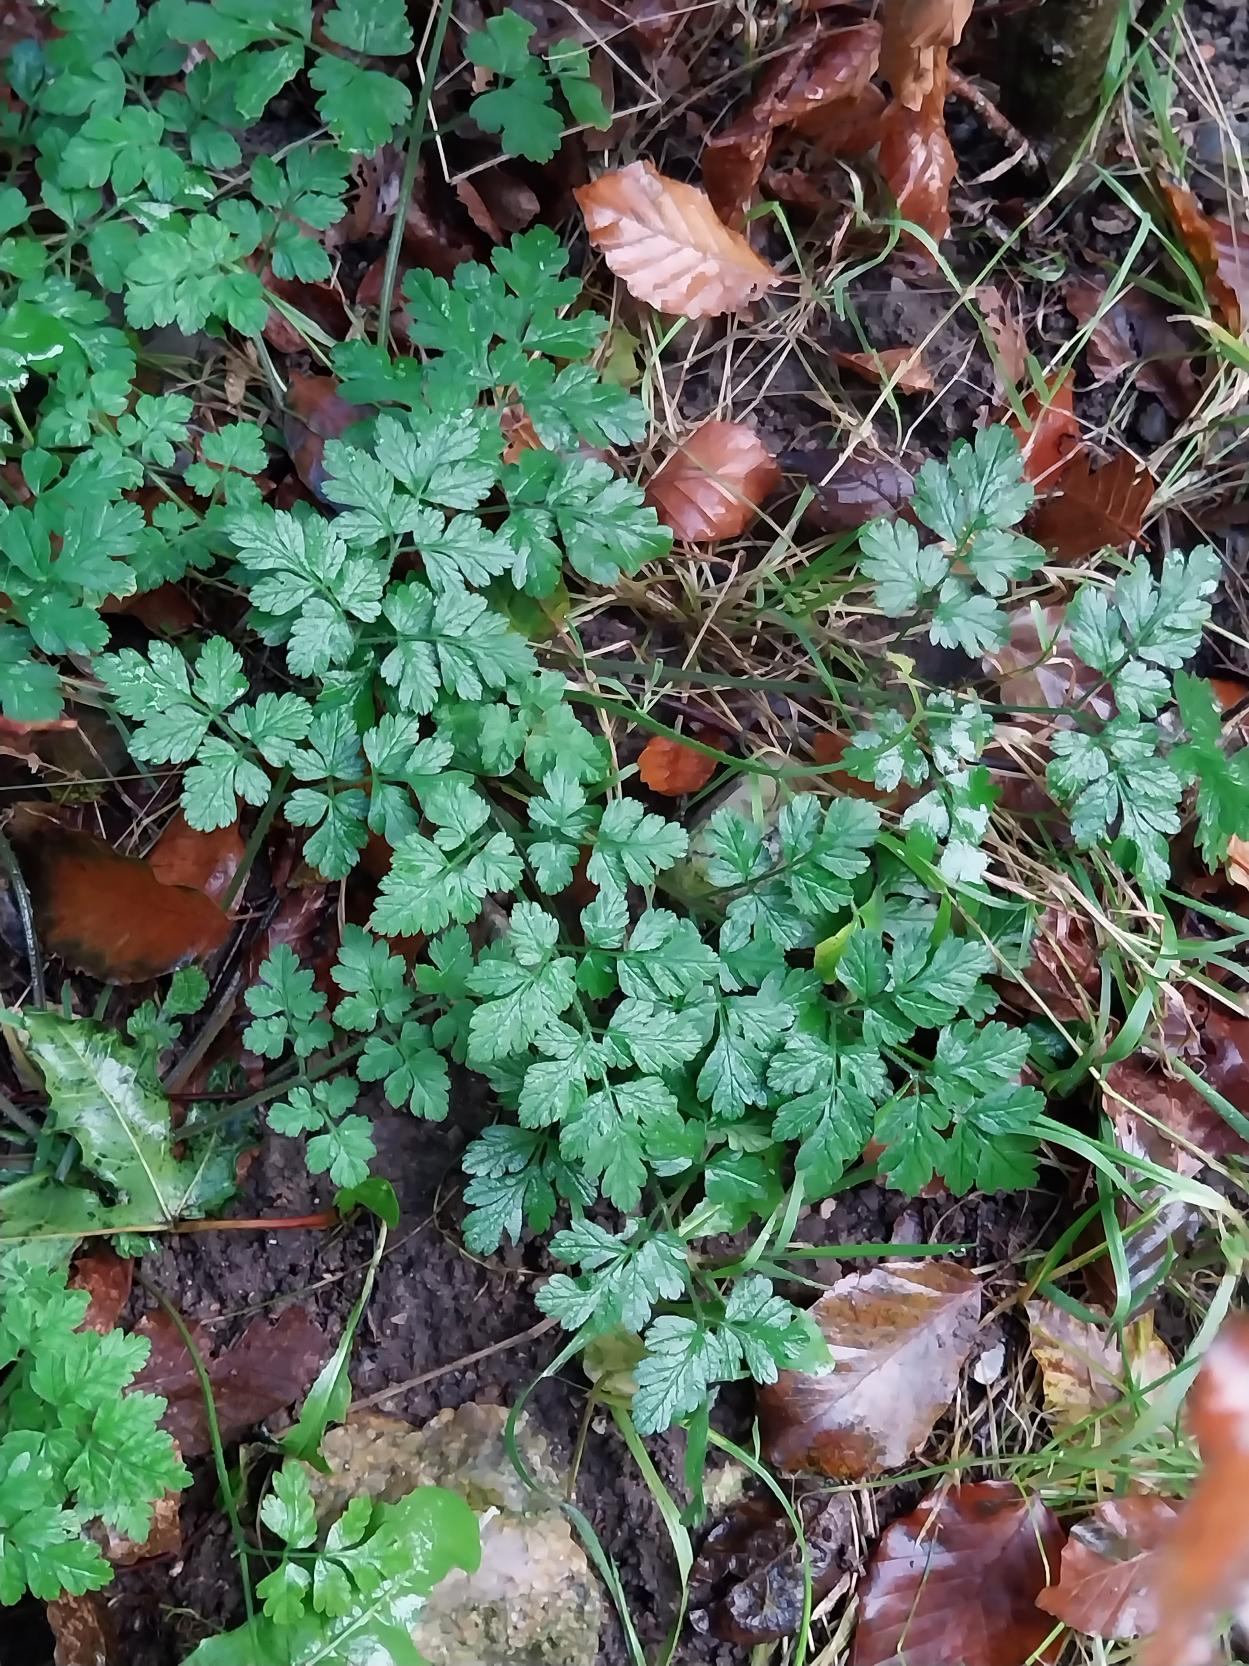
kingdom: Plantae
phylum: Tracheophyta
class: Magnoliopsida
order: Apiales
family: Apiaceae
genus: Chaerophyllum
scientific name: Chaerophyllum temulum
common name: Almindelig hulsvøb
